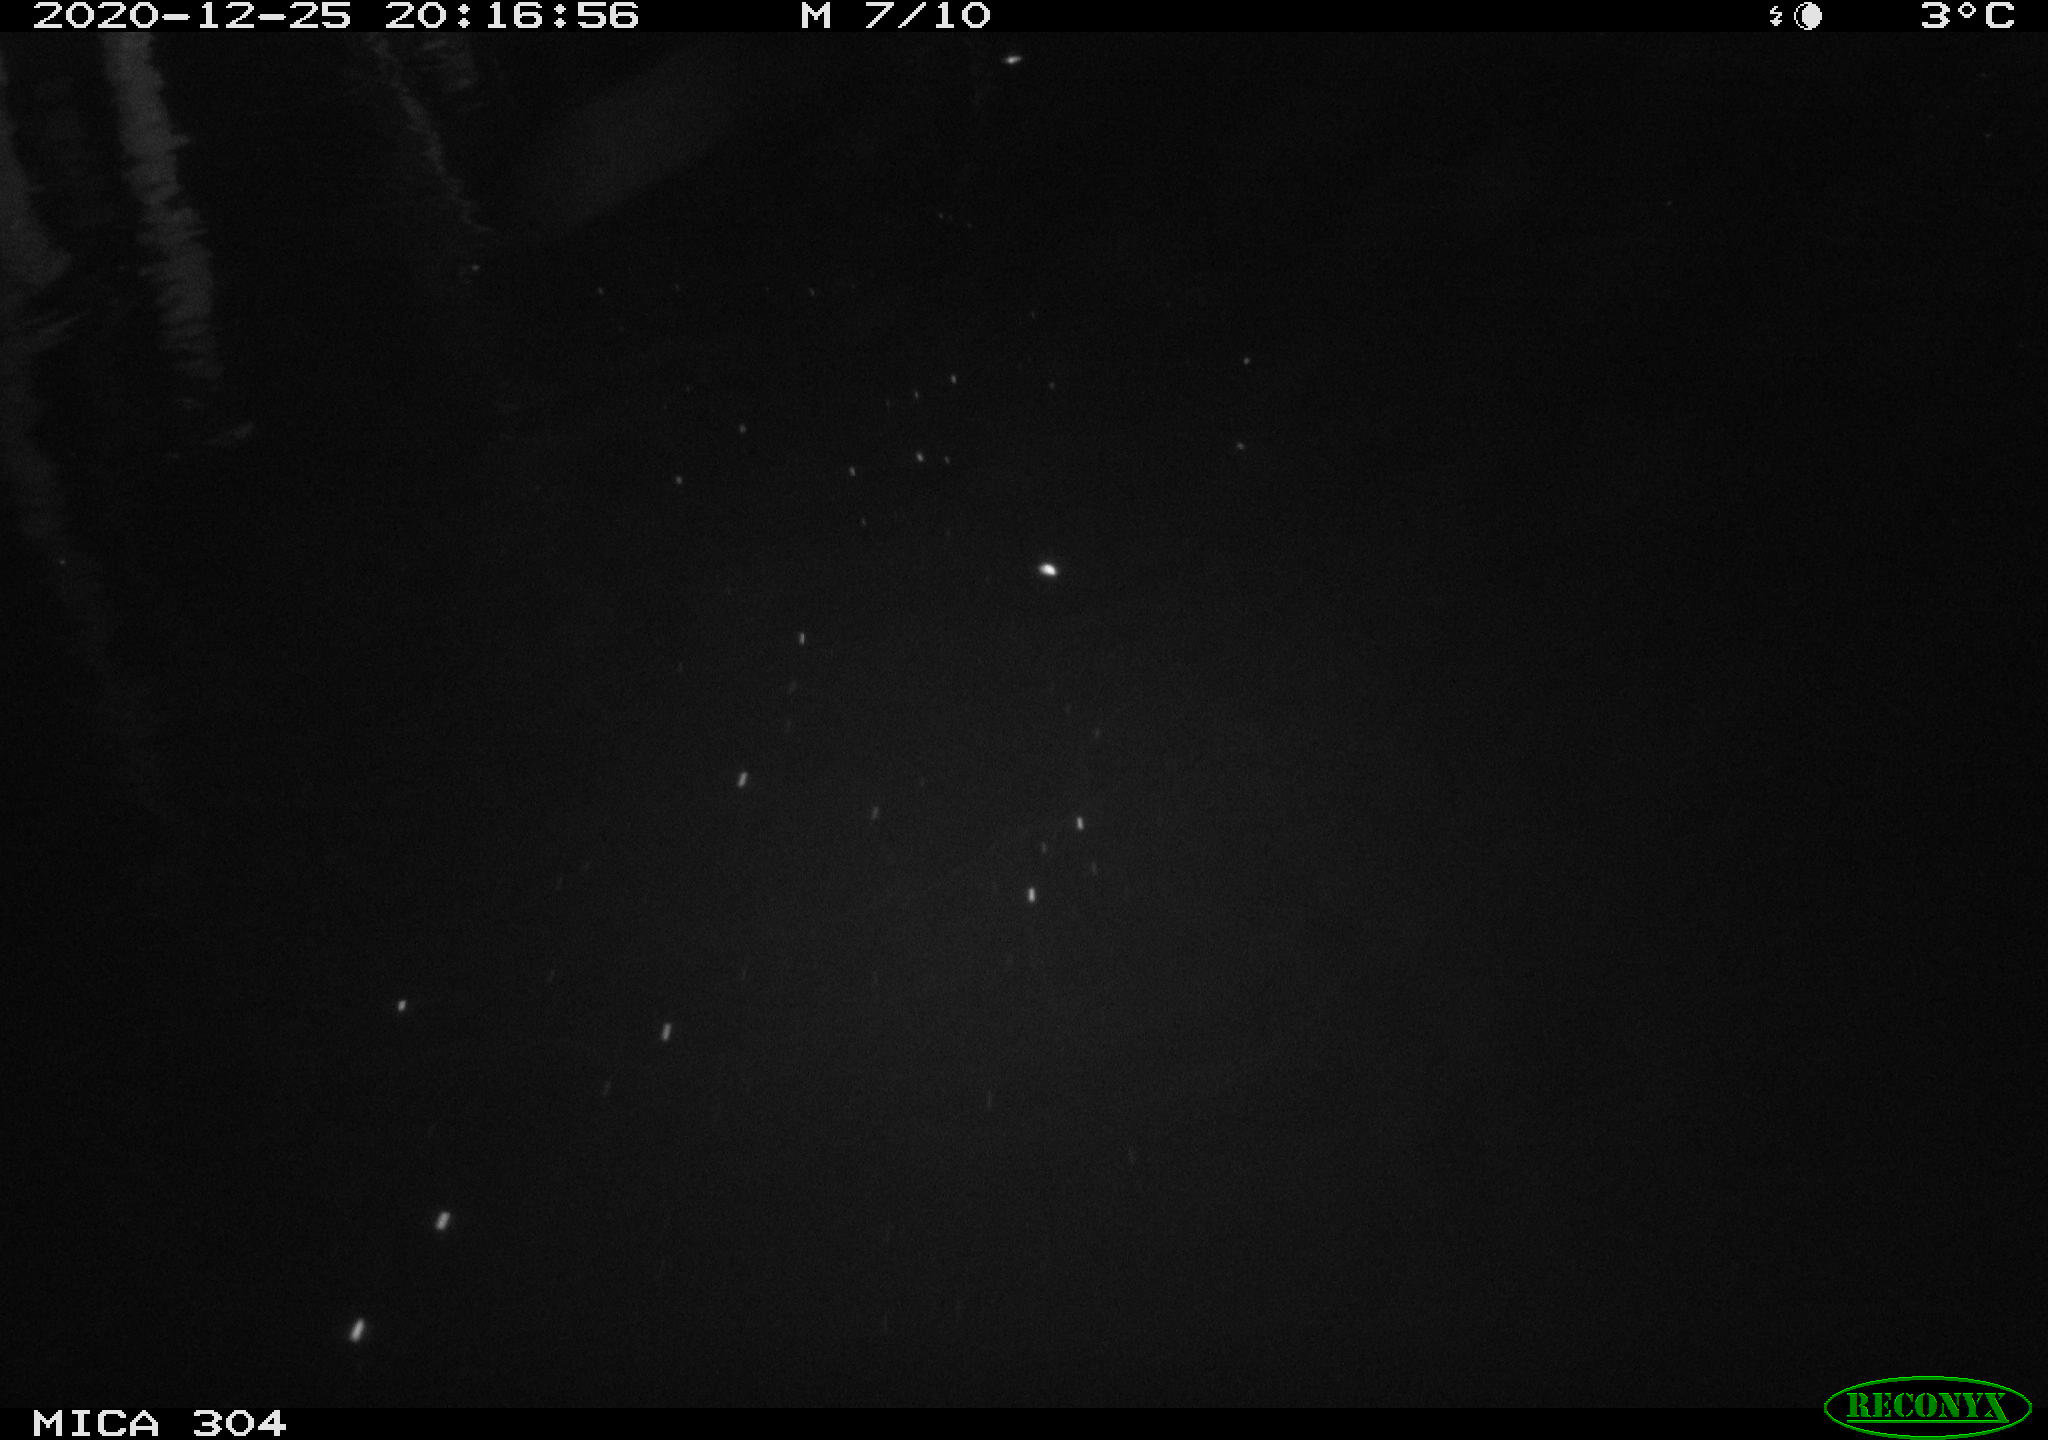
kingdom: Animalia
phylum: Chordata
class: Mammalia
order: Rodentia
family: Cricetidae
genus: Ondatra
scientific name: Ondatra zibethicus
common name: Muskrat
